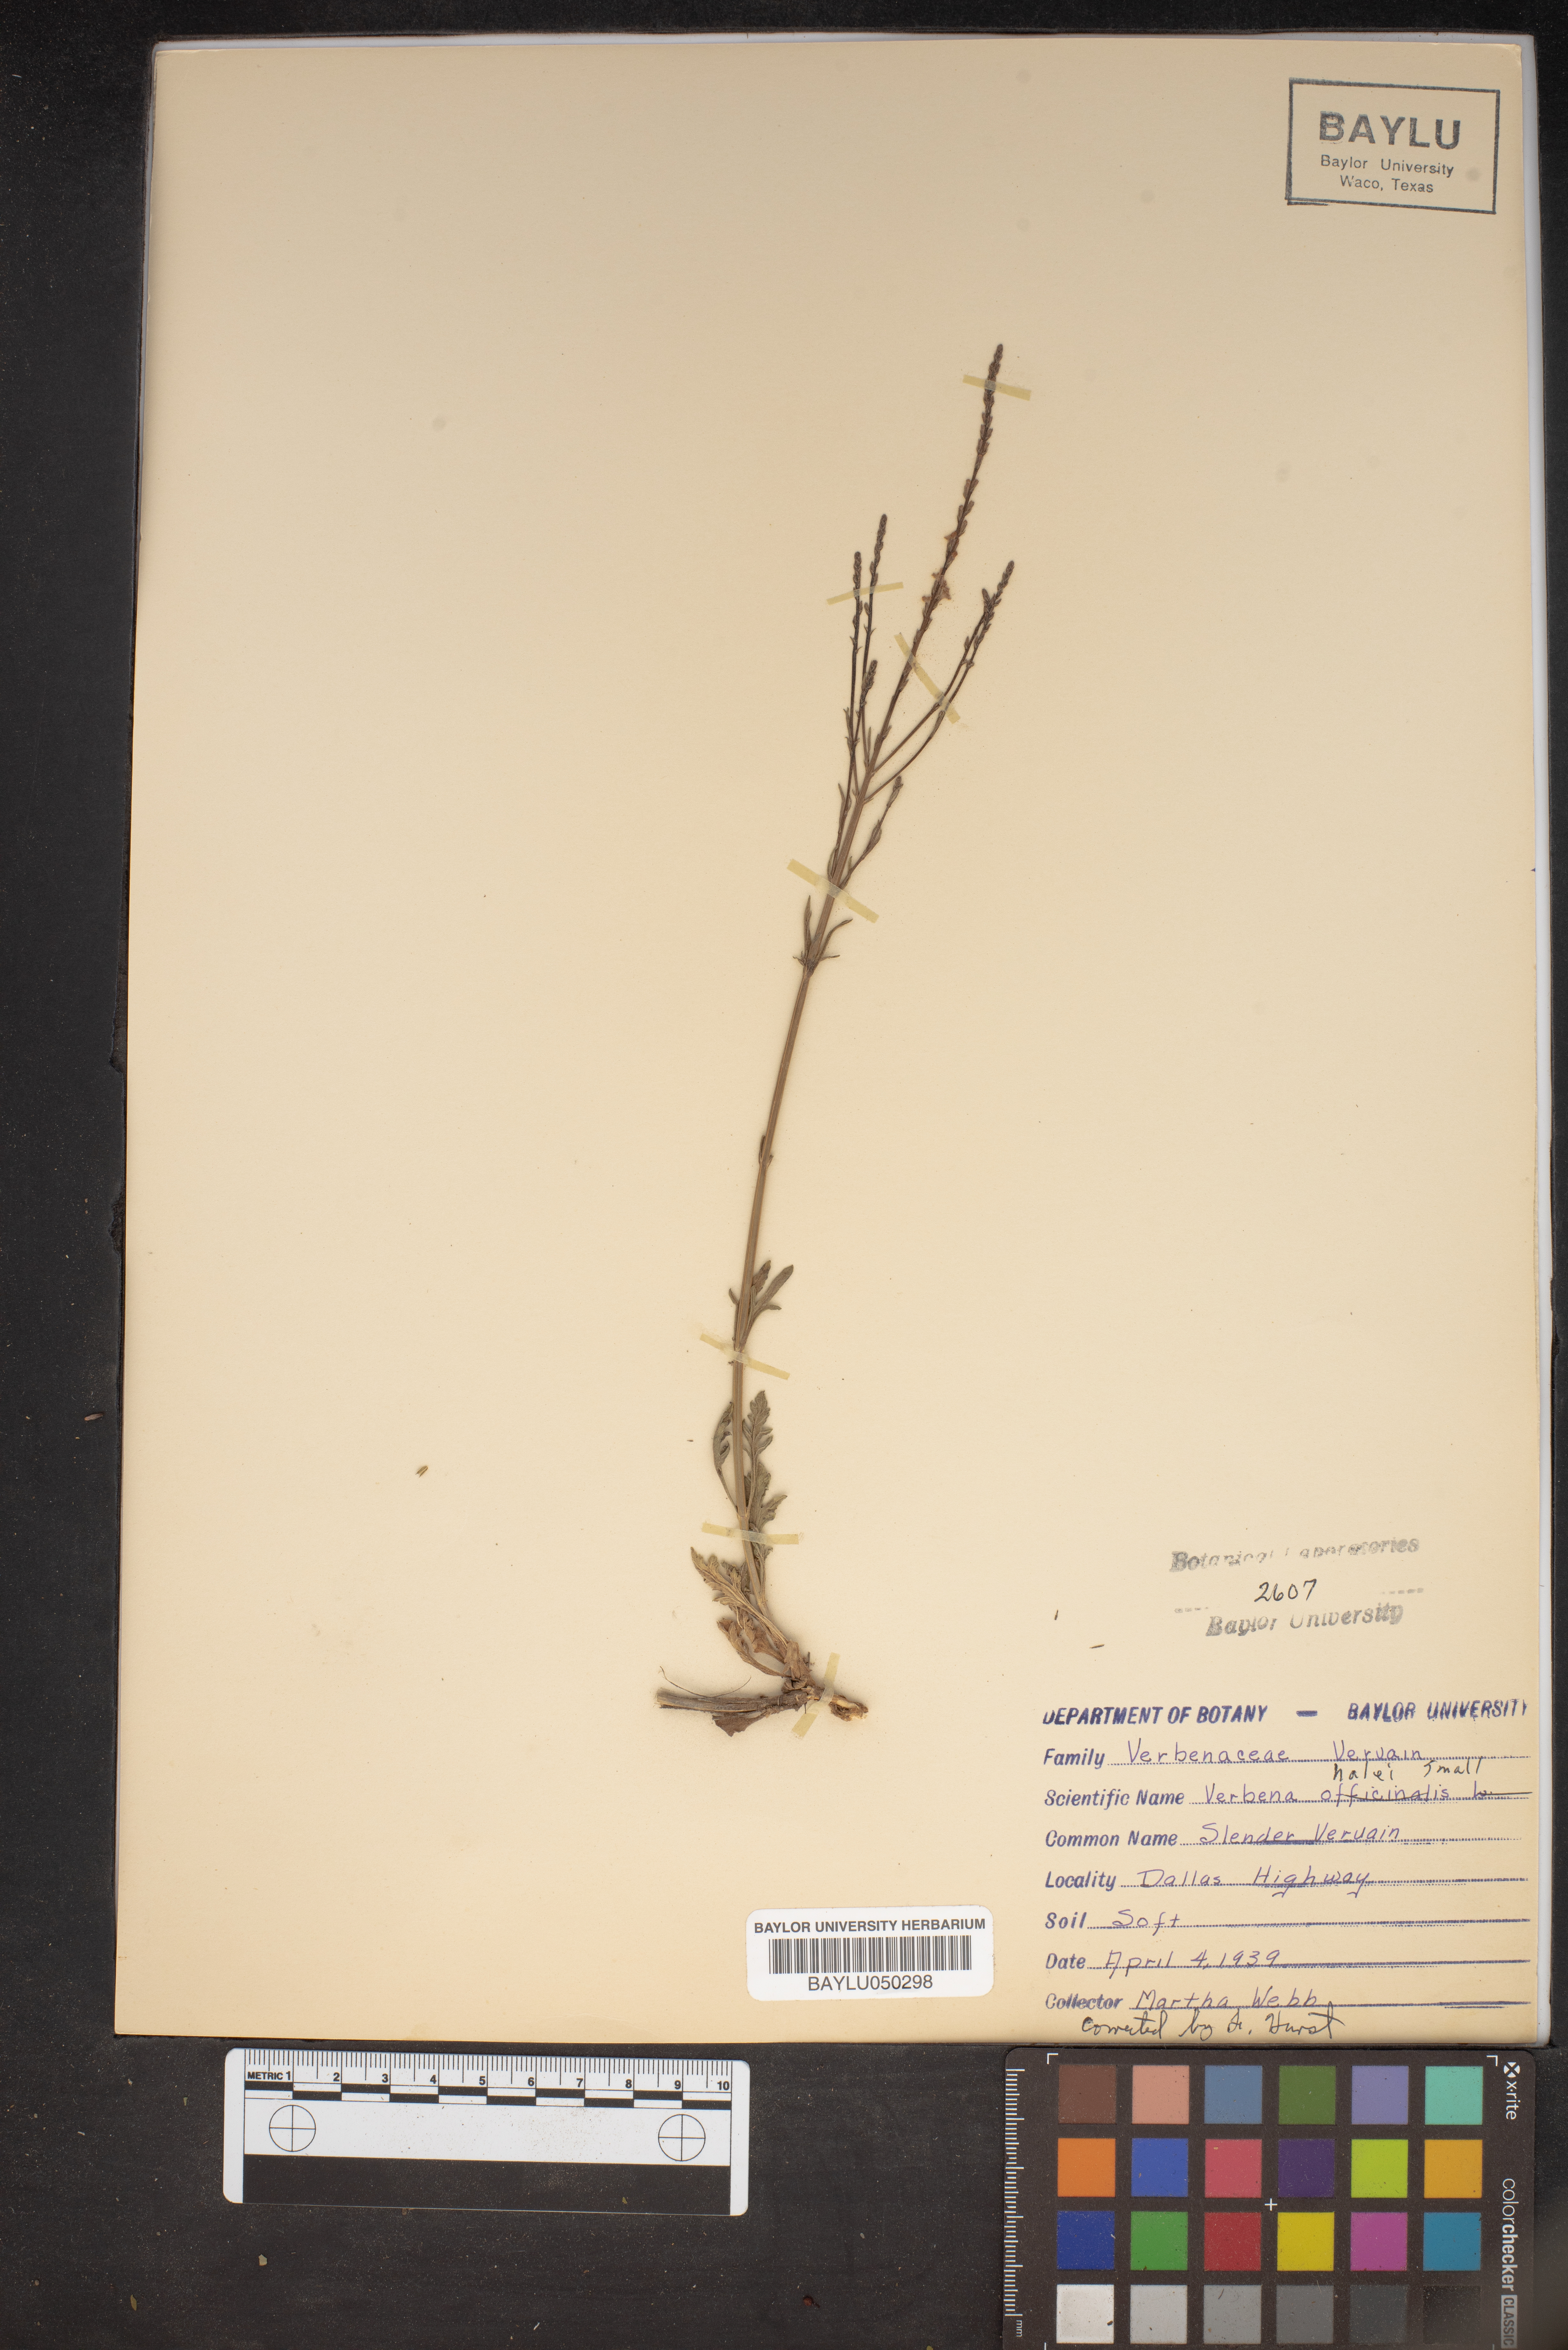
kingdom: Plantae
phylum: Tracheophyta
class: Magnoliopsida
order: Lamiales
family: Verbenaceae
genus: Verbena
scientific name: Verbena halei
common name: Texas vervain
